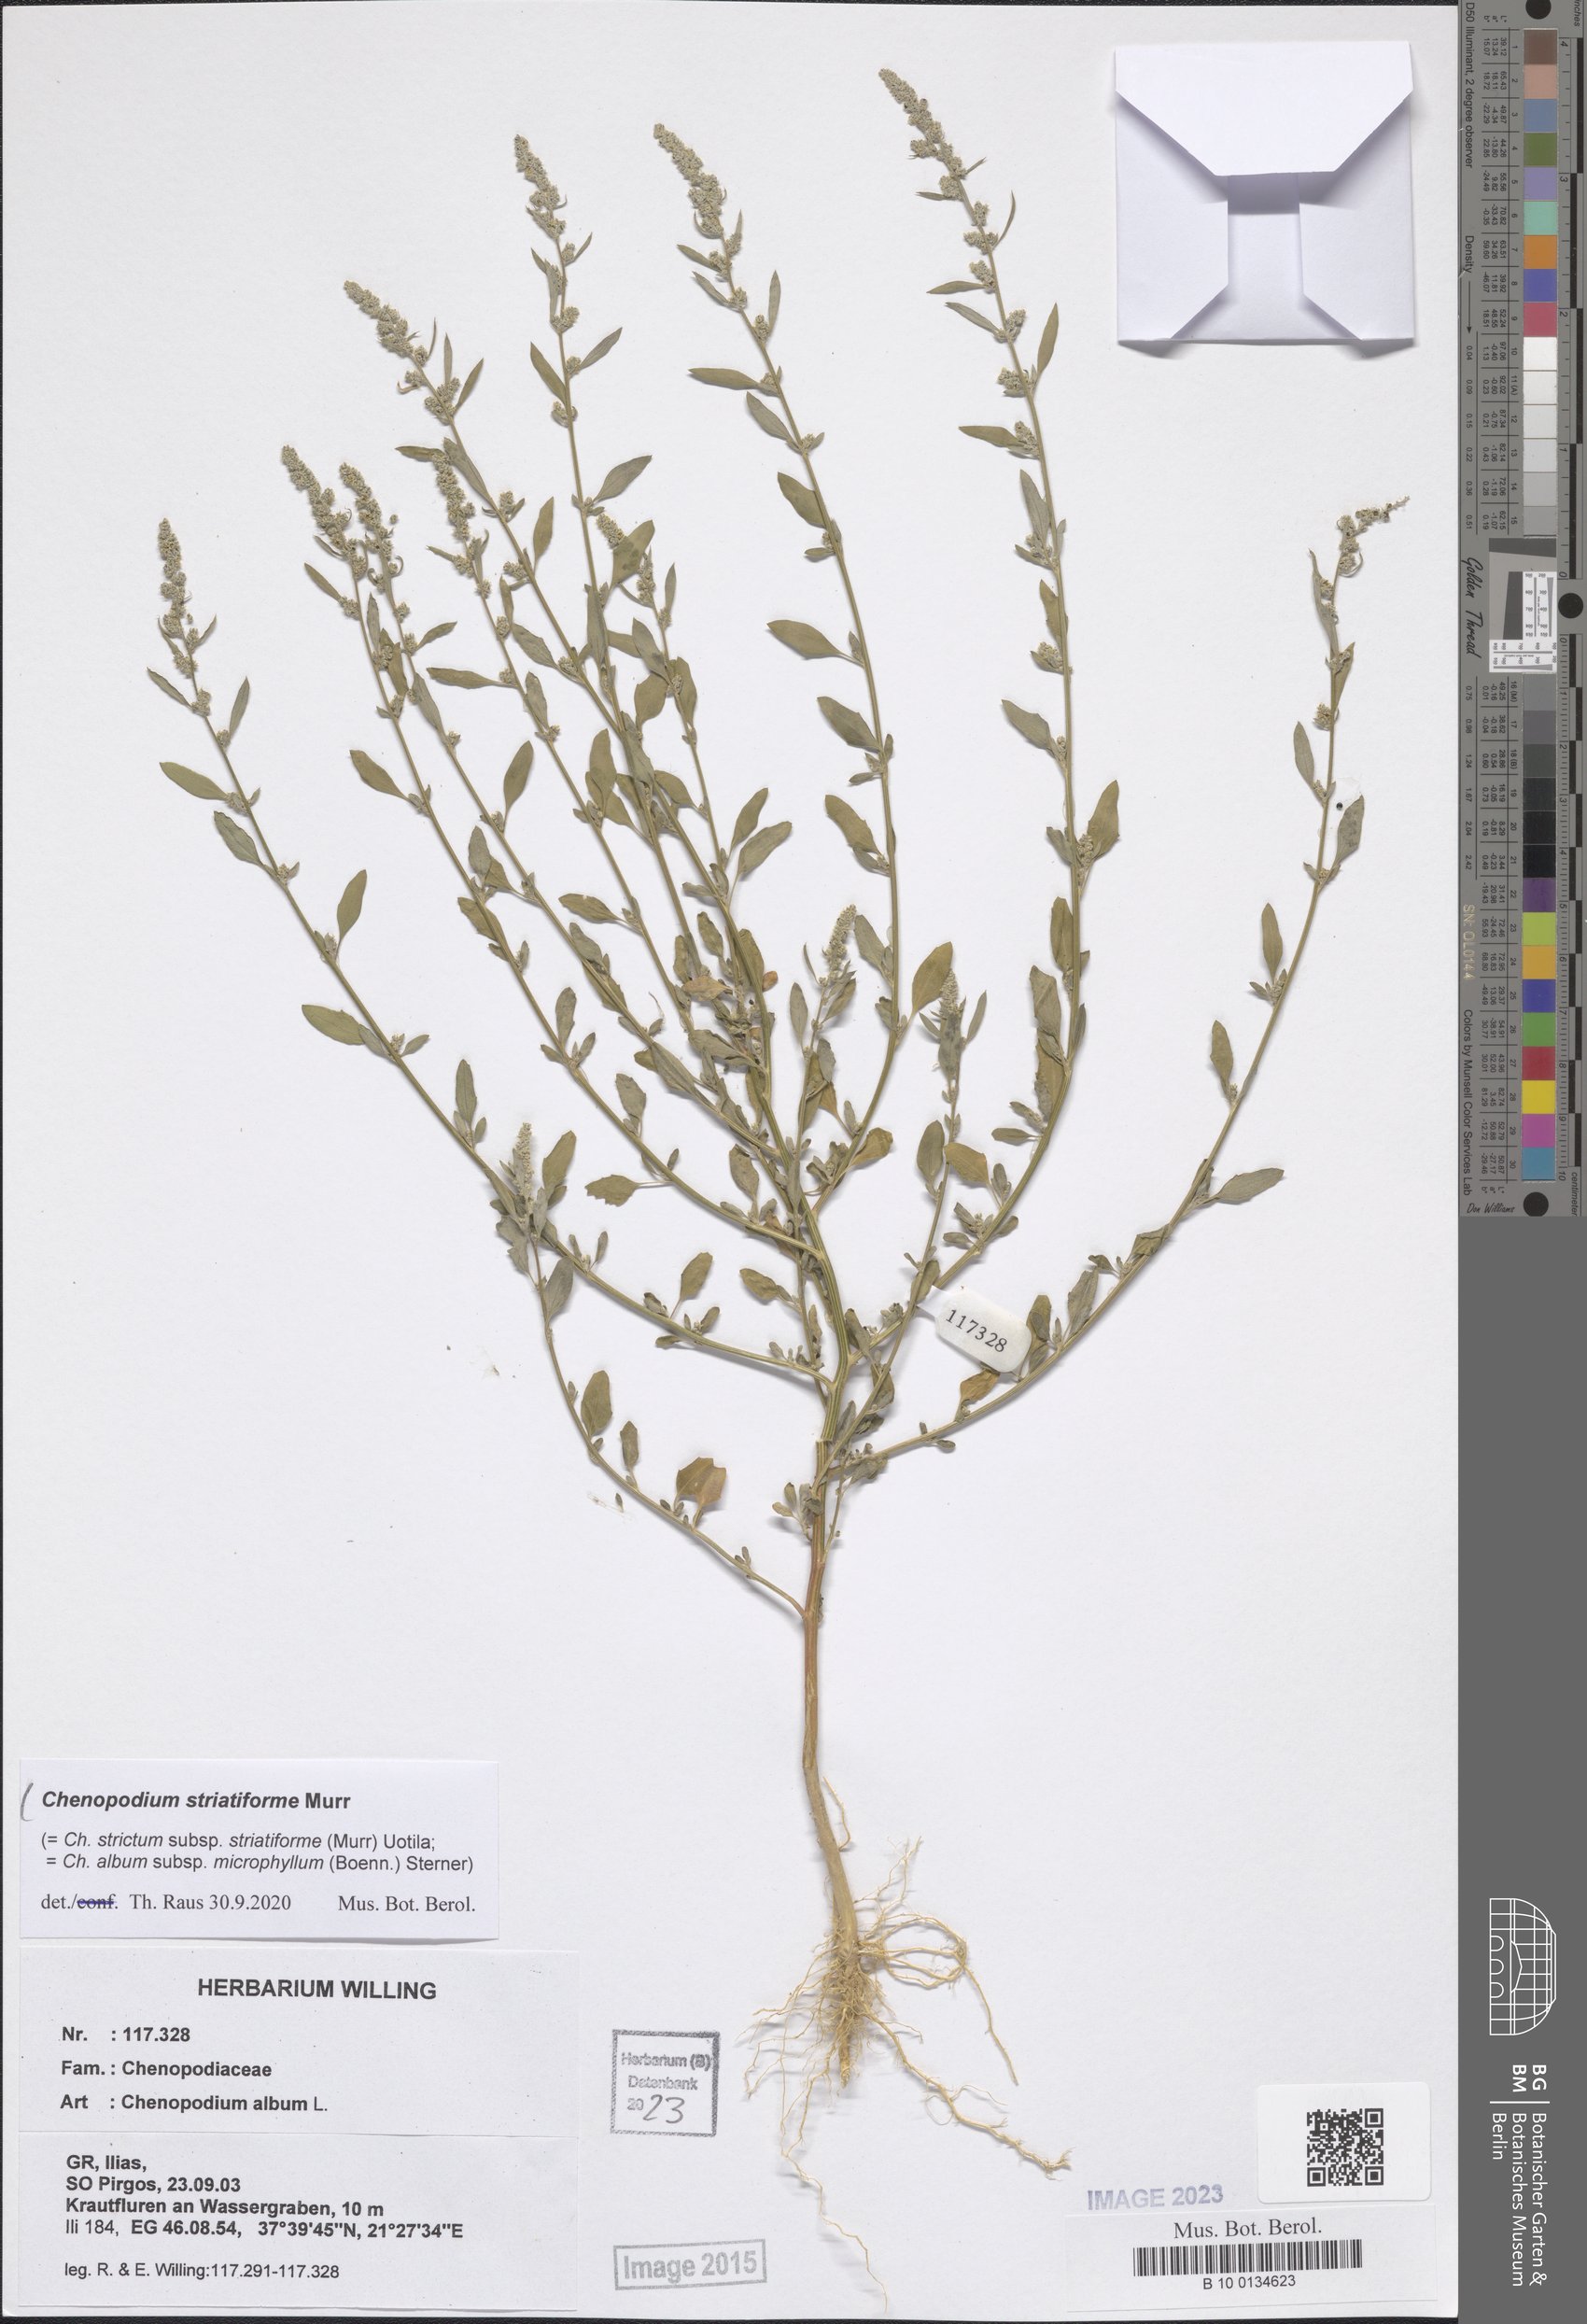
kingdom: Plantae
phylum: Tracheophyta
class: Magnoliopsida
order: Caryophyllales
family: Amaranthaceae
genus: Chenopodium
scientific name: Chenopodium striatiforme
